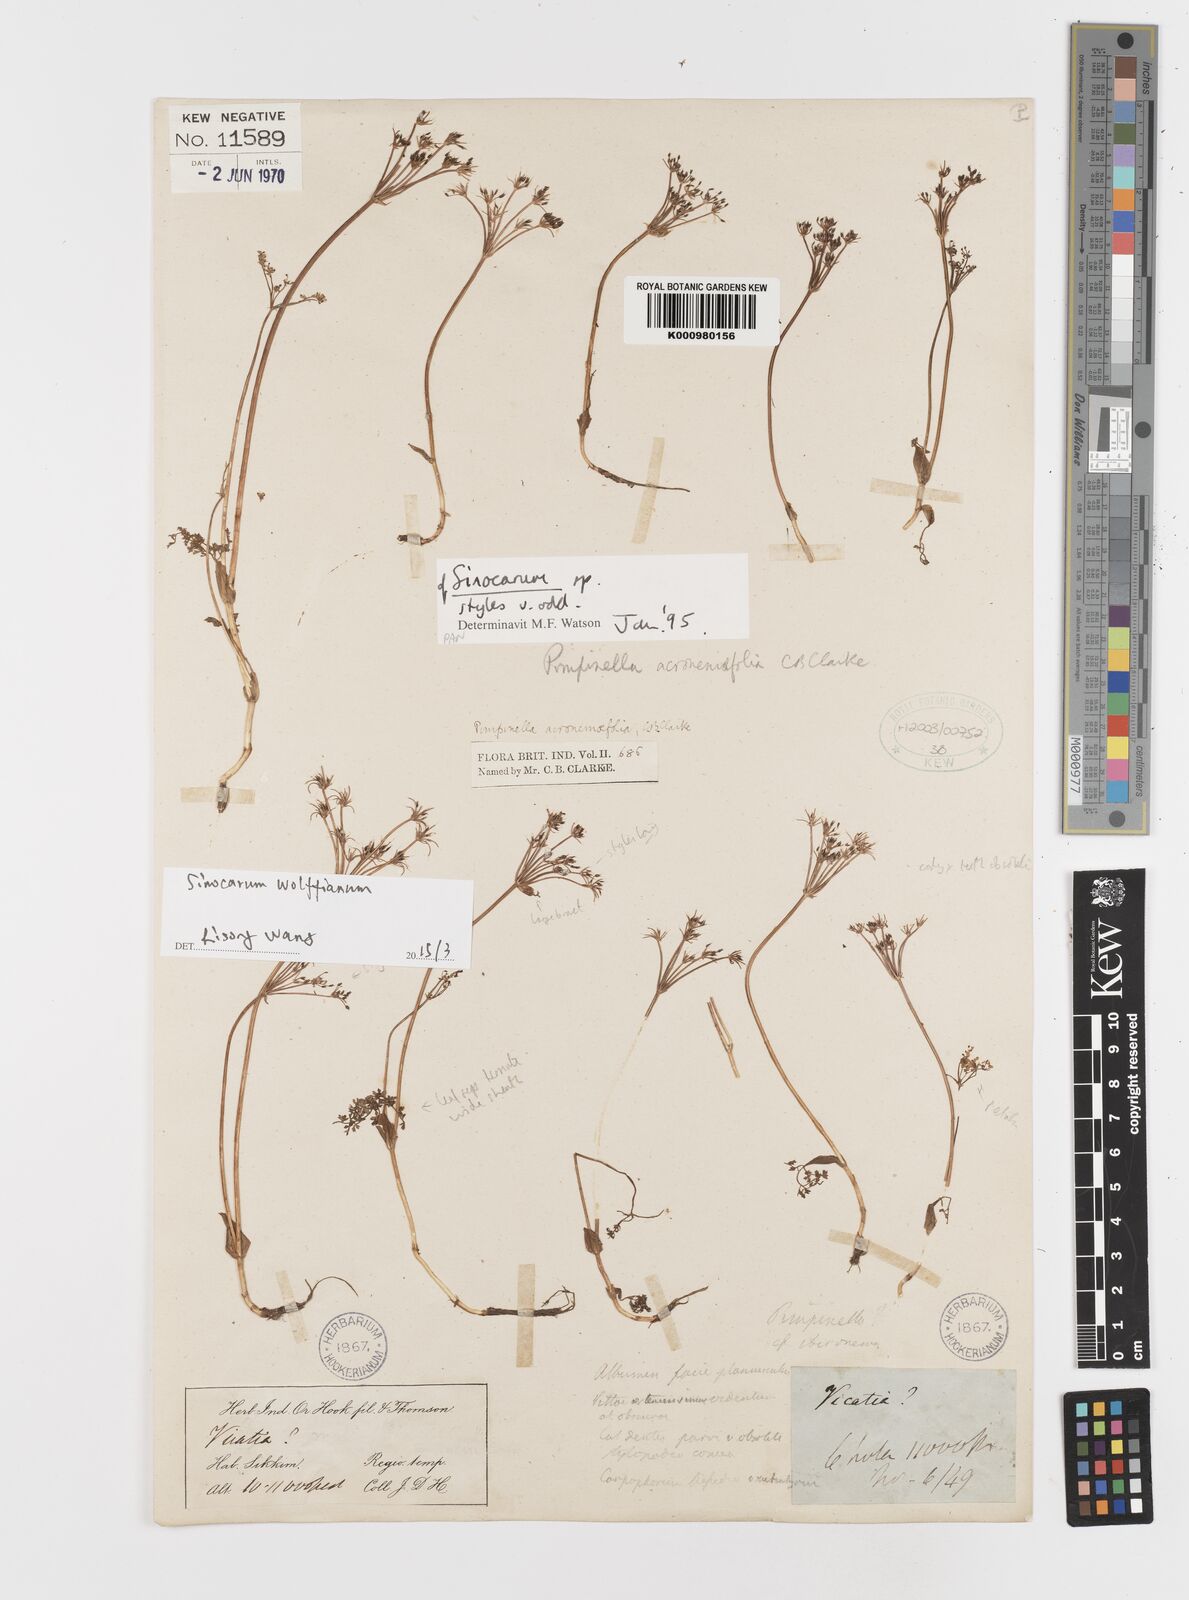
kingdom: Plantae
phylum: Tracheophyta
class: Magnoliopsida
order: Apiales
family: Apiaceae
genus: Sinocarum
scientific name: Sinocarum wolffianum
